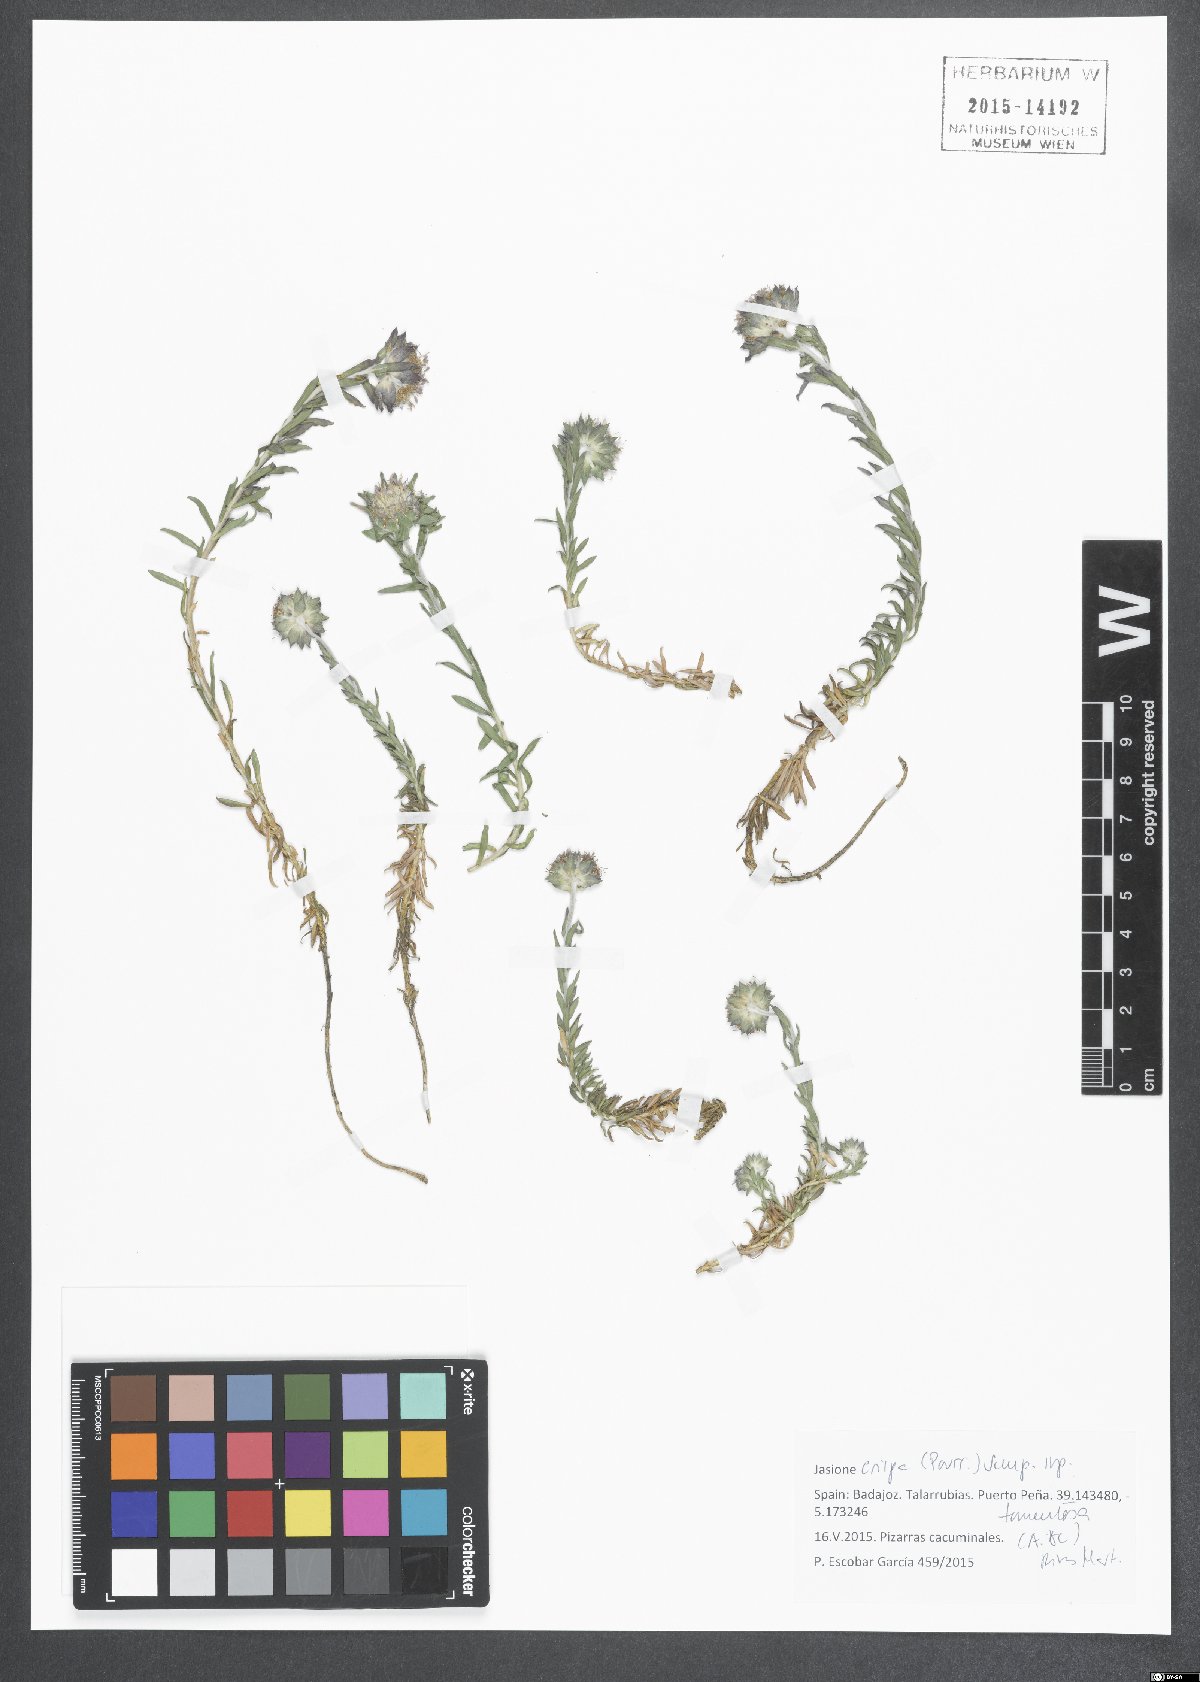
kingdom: Plantae
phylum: Tracheophyta
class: Magnoliopsida
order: Asterales
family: Campanulaceae
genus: Jasione
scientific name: Jasione crispa
